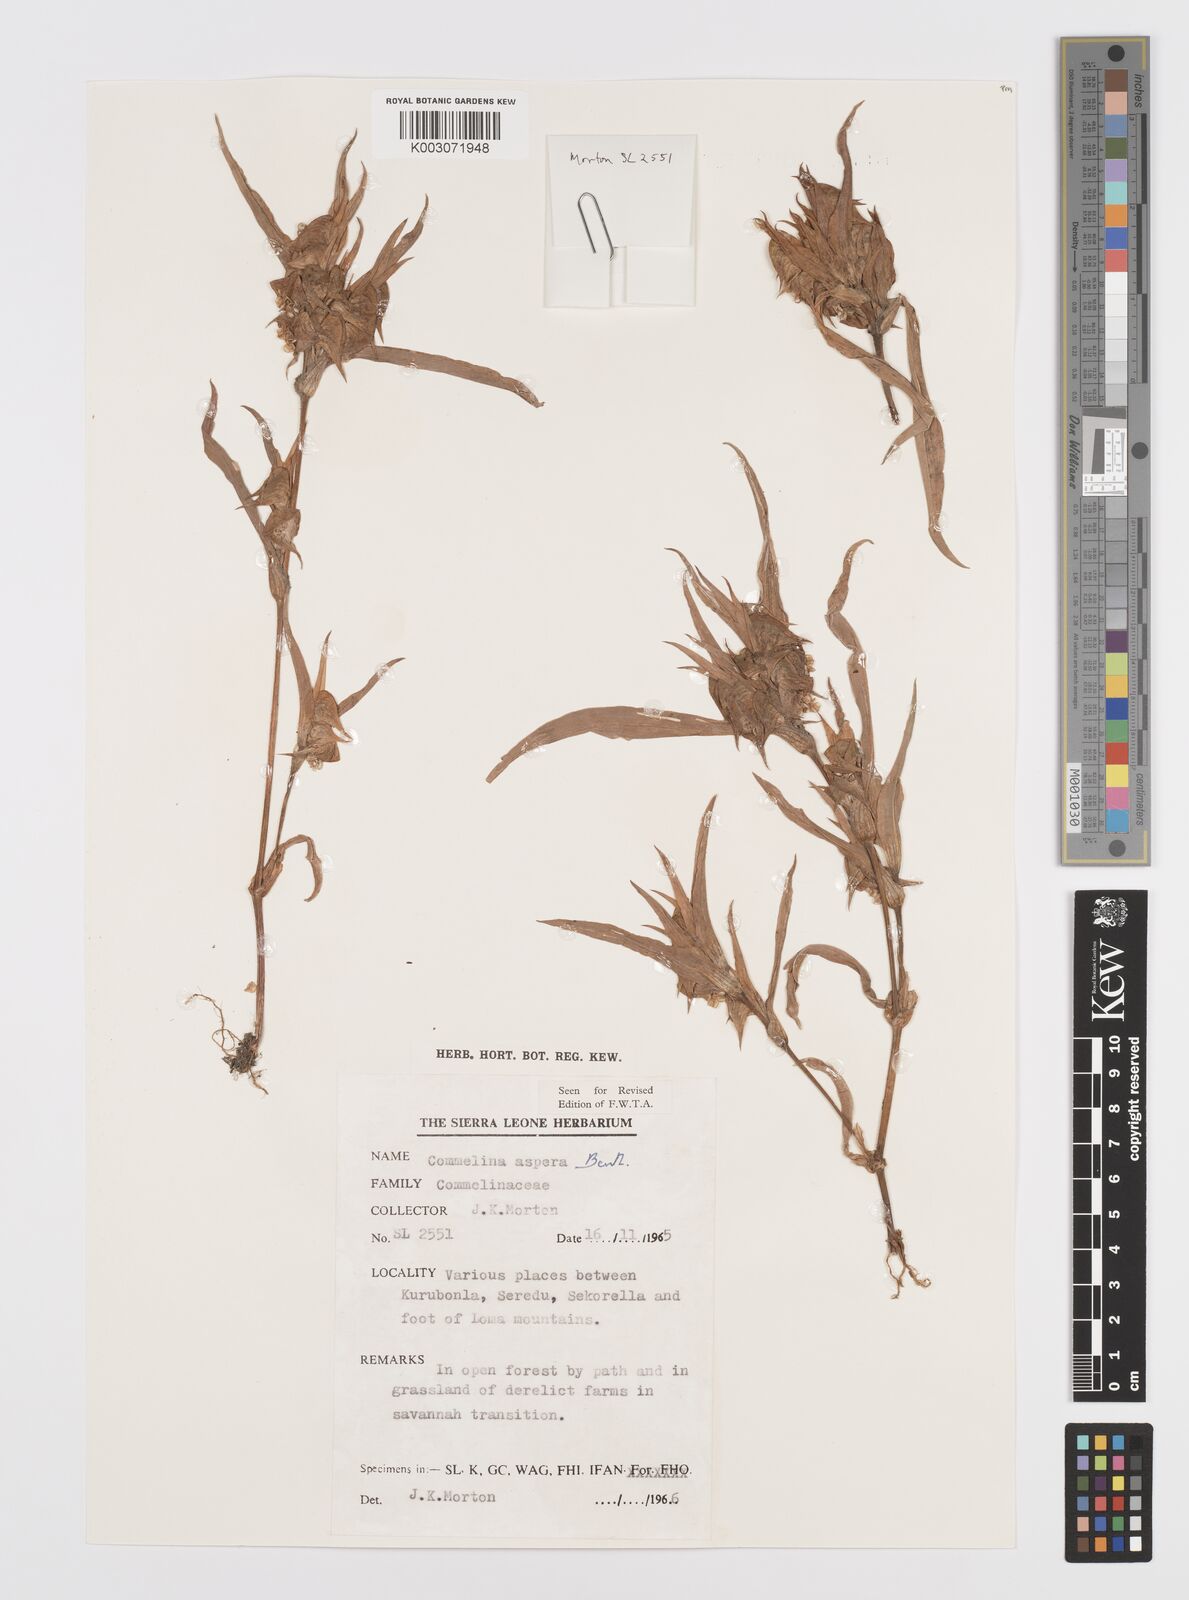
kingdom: Plantae
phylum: Tracheophyta
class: Liliopsida
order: Commelinales
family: Commelinaceae
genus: Commelina
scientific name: Commelina aspera
